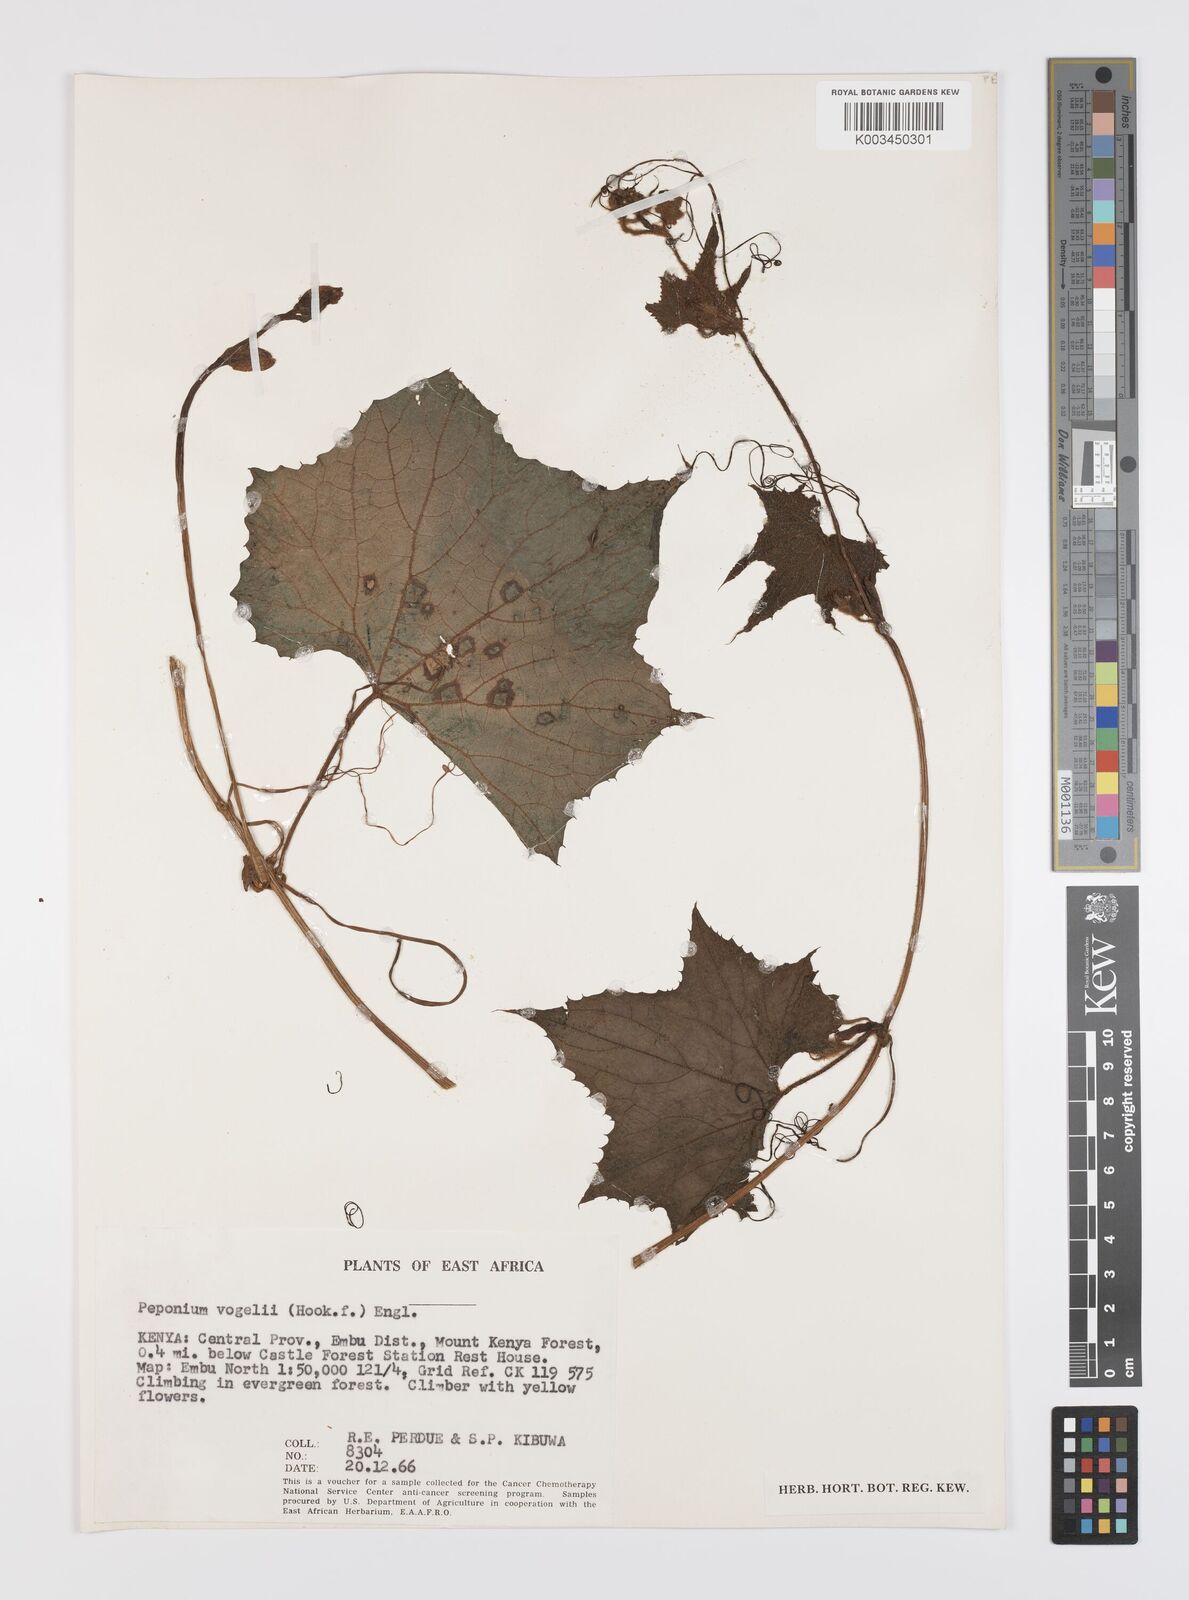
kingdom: Plantae
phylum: Tracheophyta
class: Magnoliopsida
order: Cucurbitales
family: Cucurbitaceae
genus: Peponium
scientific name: Peponium vogelii
